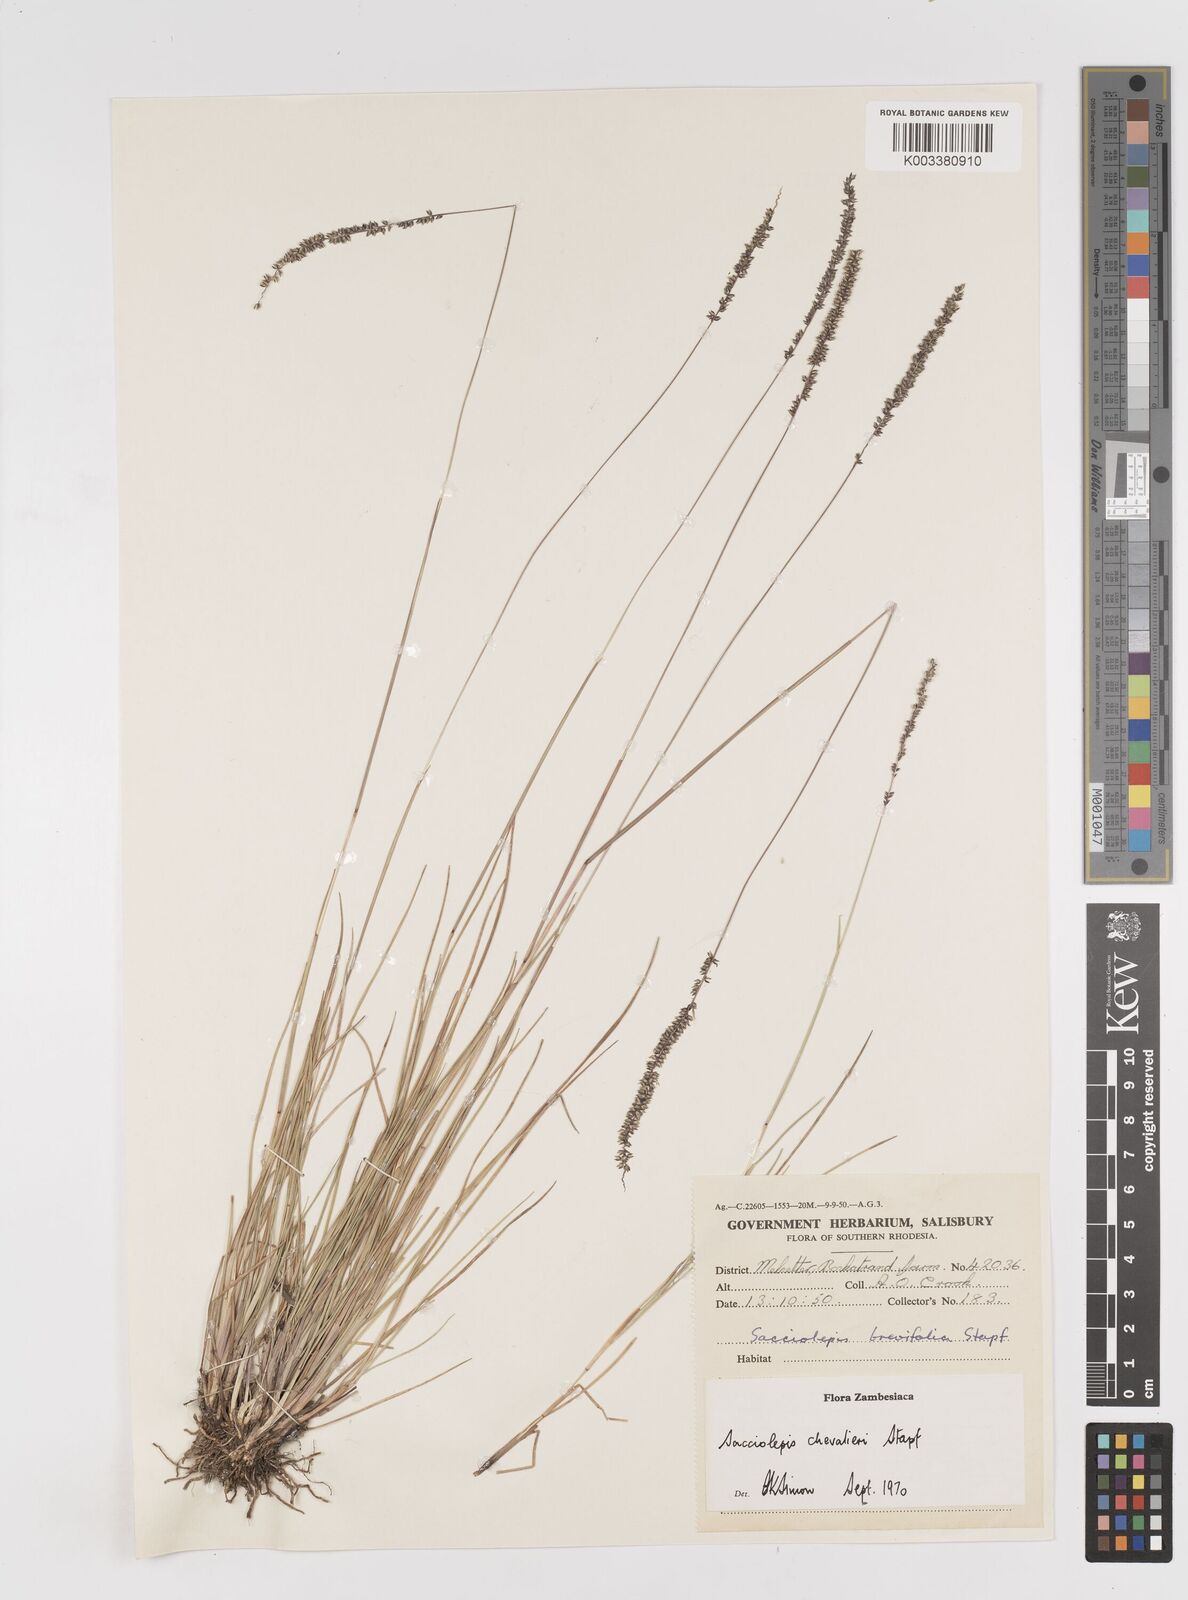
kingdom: Plantae
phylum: Tracheophyta
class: Liliopsida
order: Poales
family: Poaceae
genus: Sacciolepis
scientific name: Sacciolepis chevalieri
